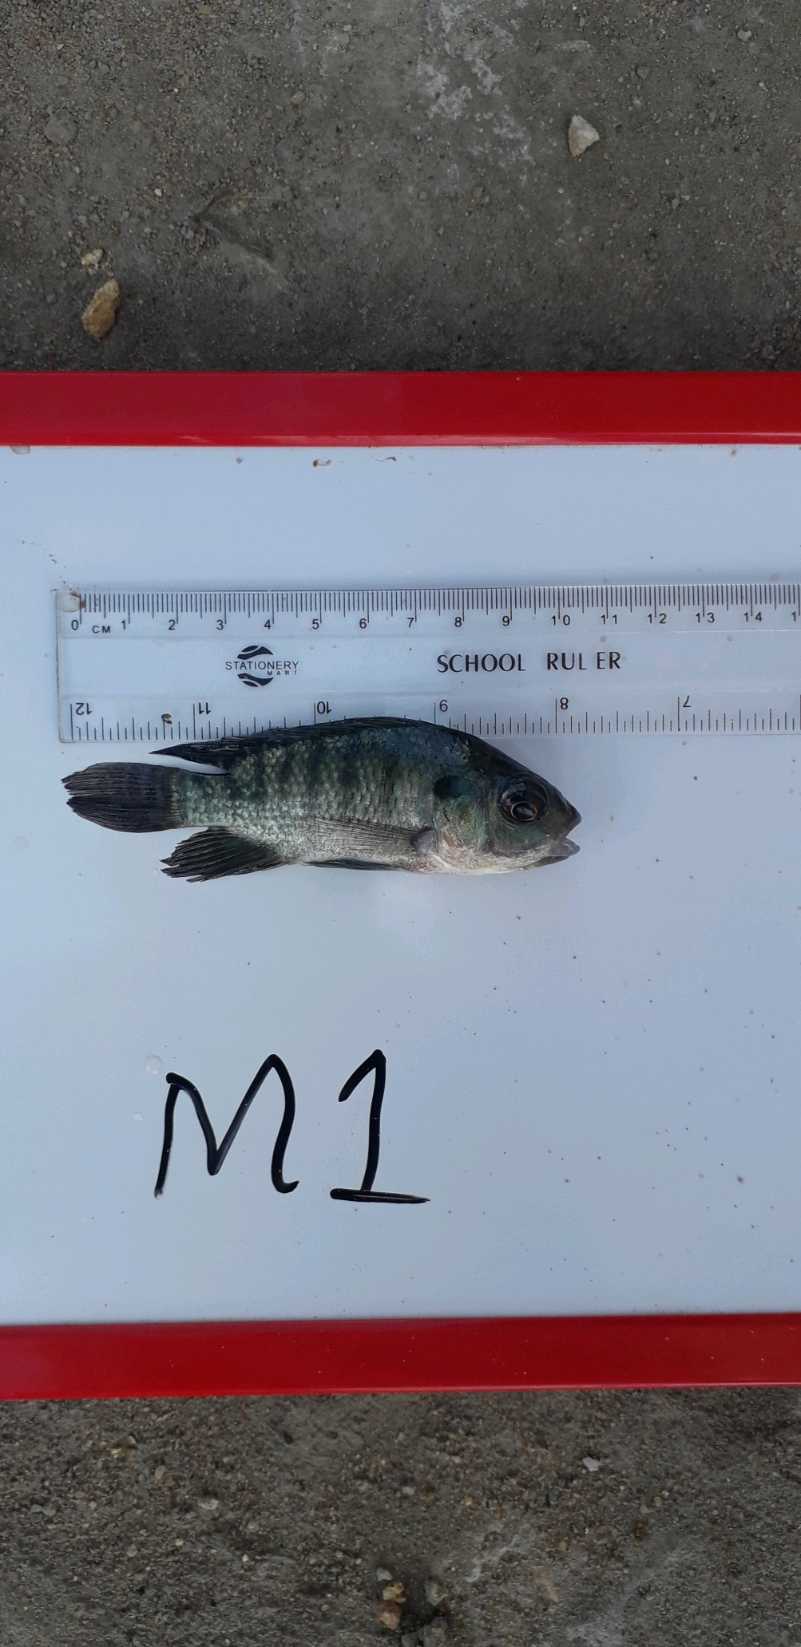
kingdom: Animalia
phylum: Chordata
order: Perciformes
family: Cichlidae
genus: Oreochromis
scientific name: Oreochromis niloticus
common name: Nile tilapia
